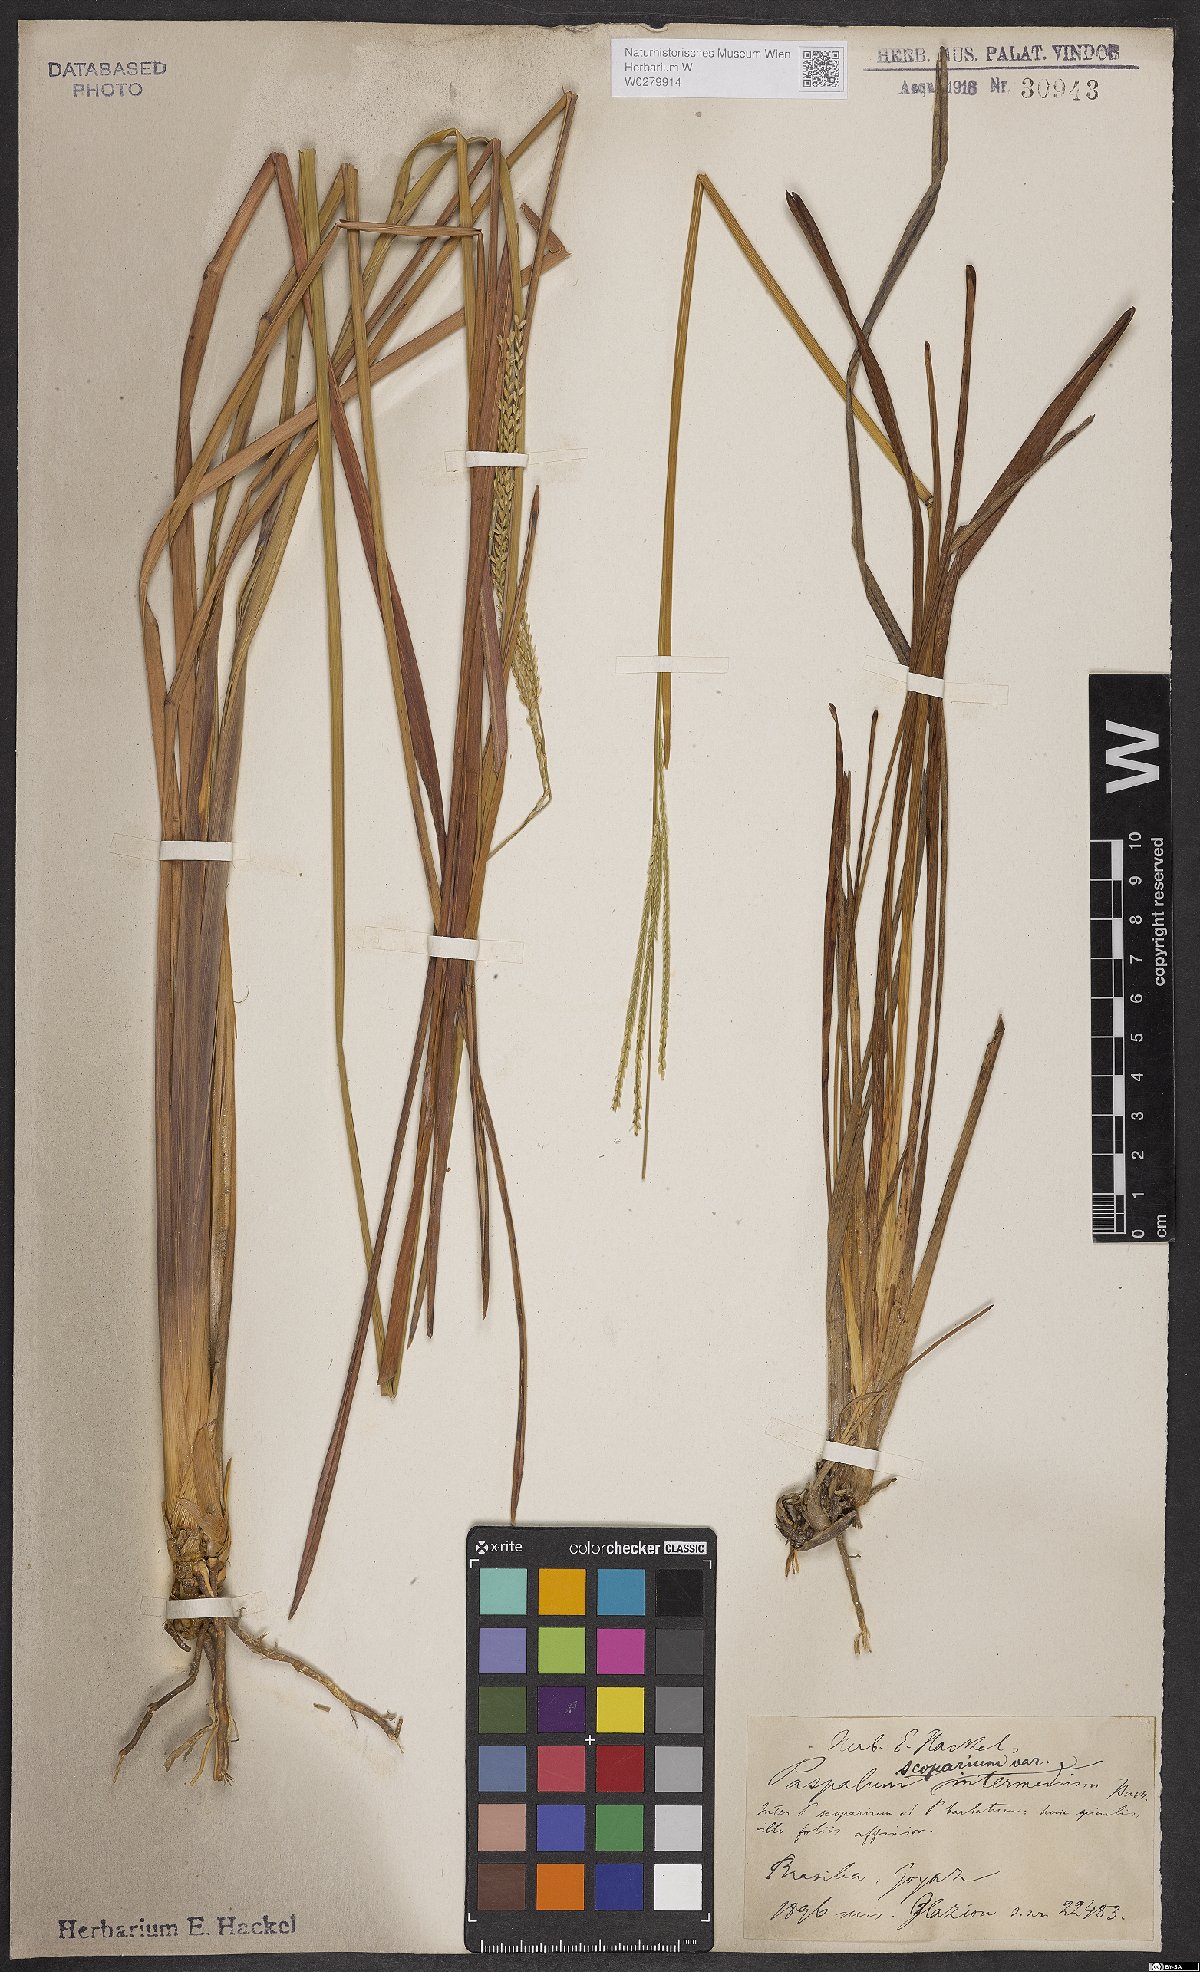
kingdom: Plantae
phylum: Tracheophyta
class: Liliopsida
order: Poales
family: Poaceae
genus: Axonopus
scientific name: Axonopus scoparius
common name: Imperial grass
